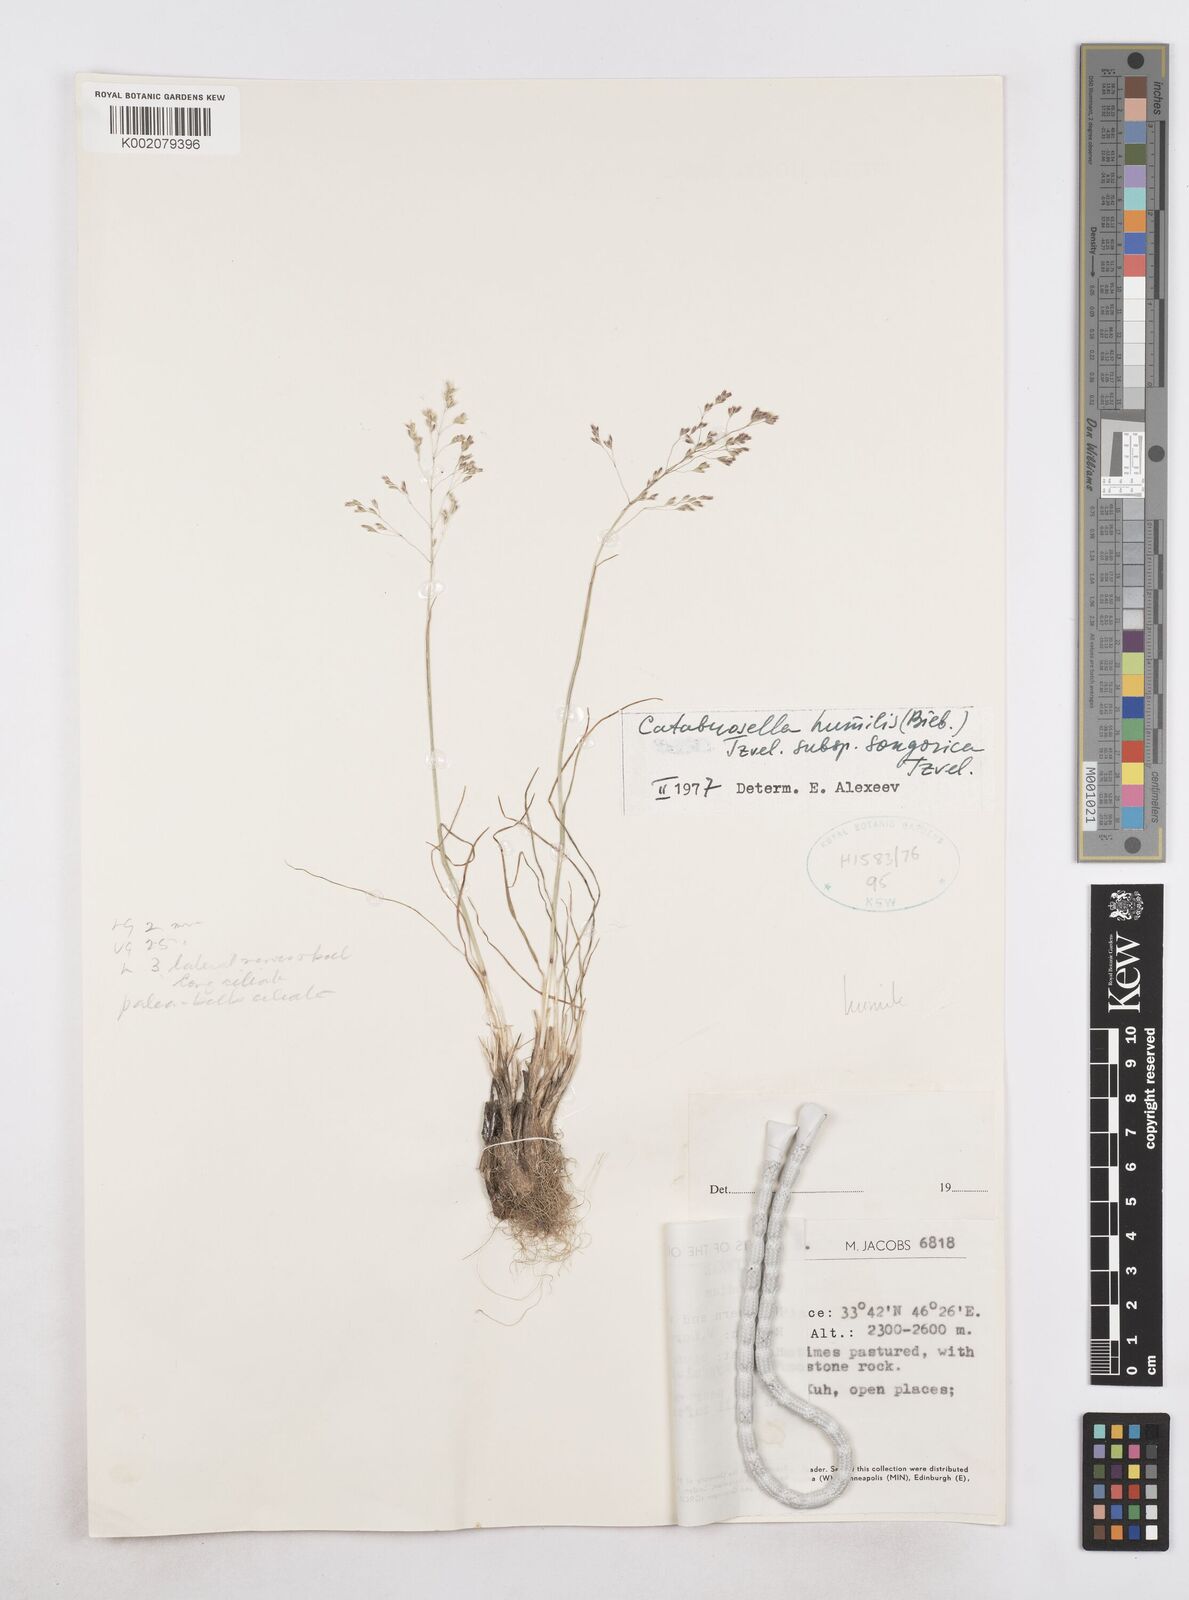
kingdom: Plantae
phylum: Tracheophyta
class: Liliopsida
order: Poales
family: Poaceae
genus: Catabrosella
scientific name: Catabrosella humilis
